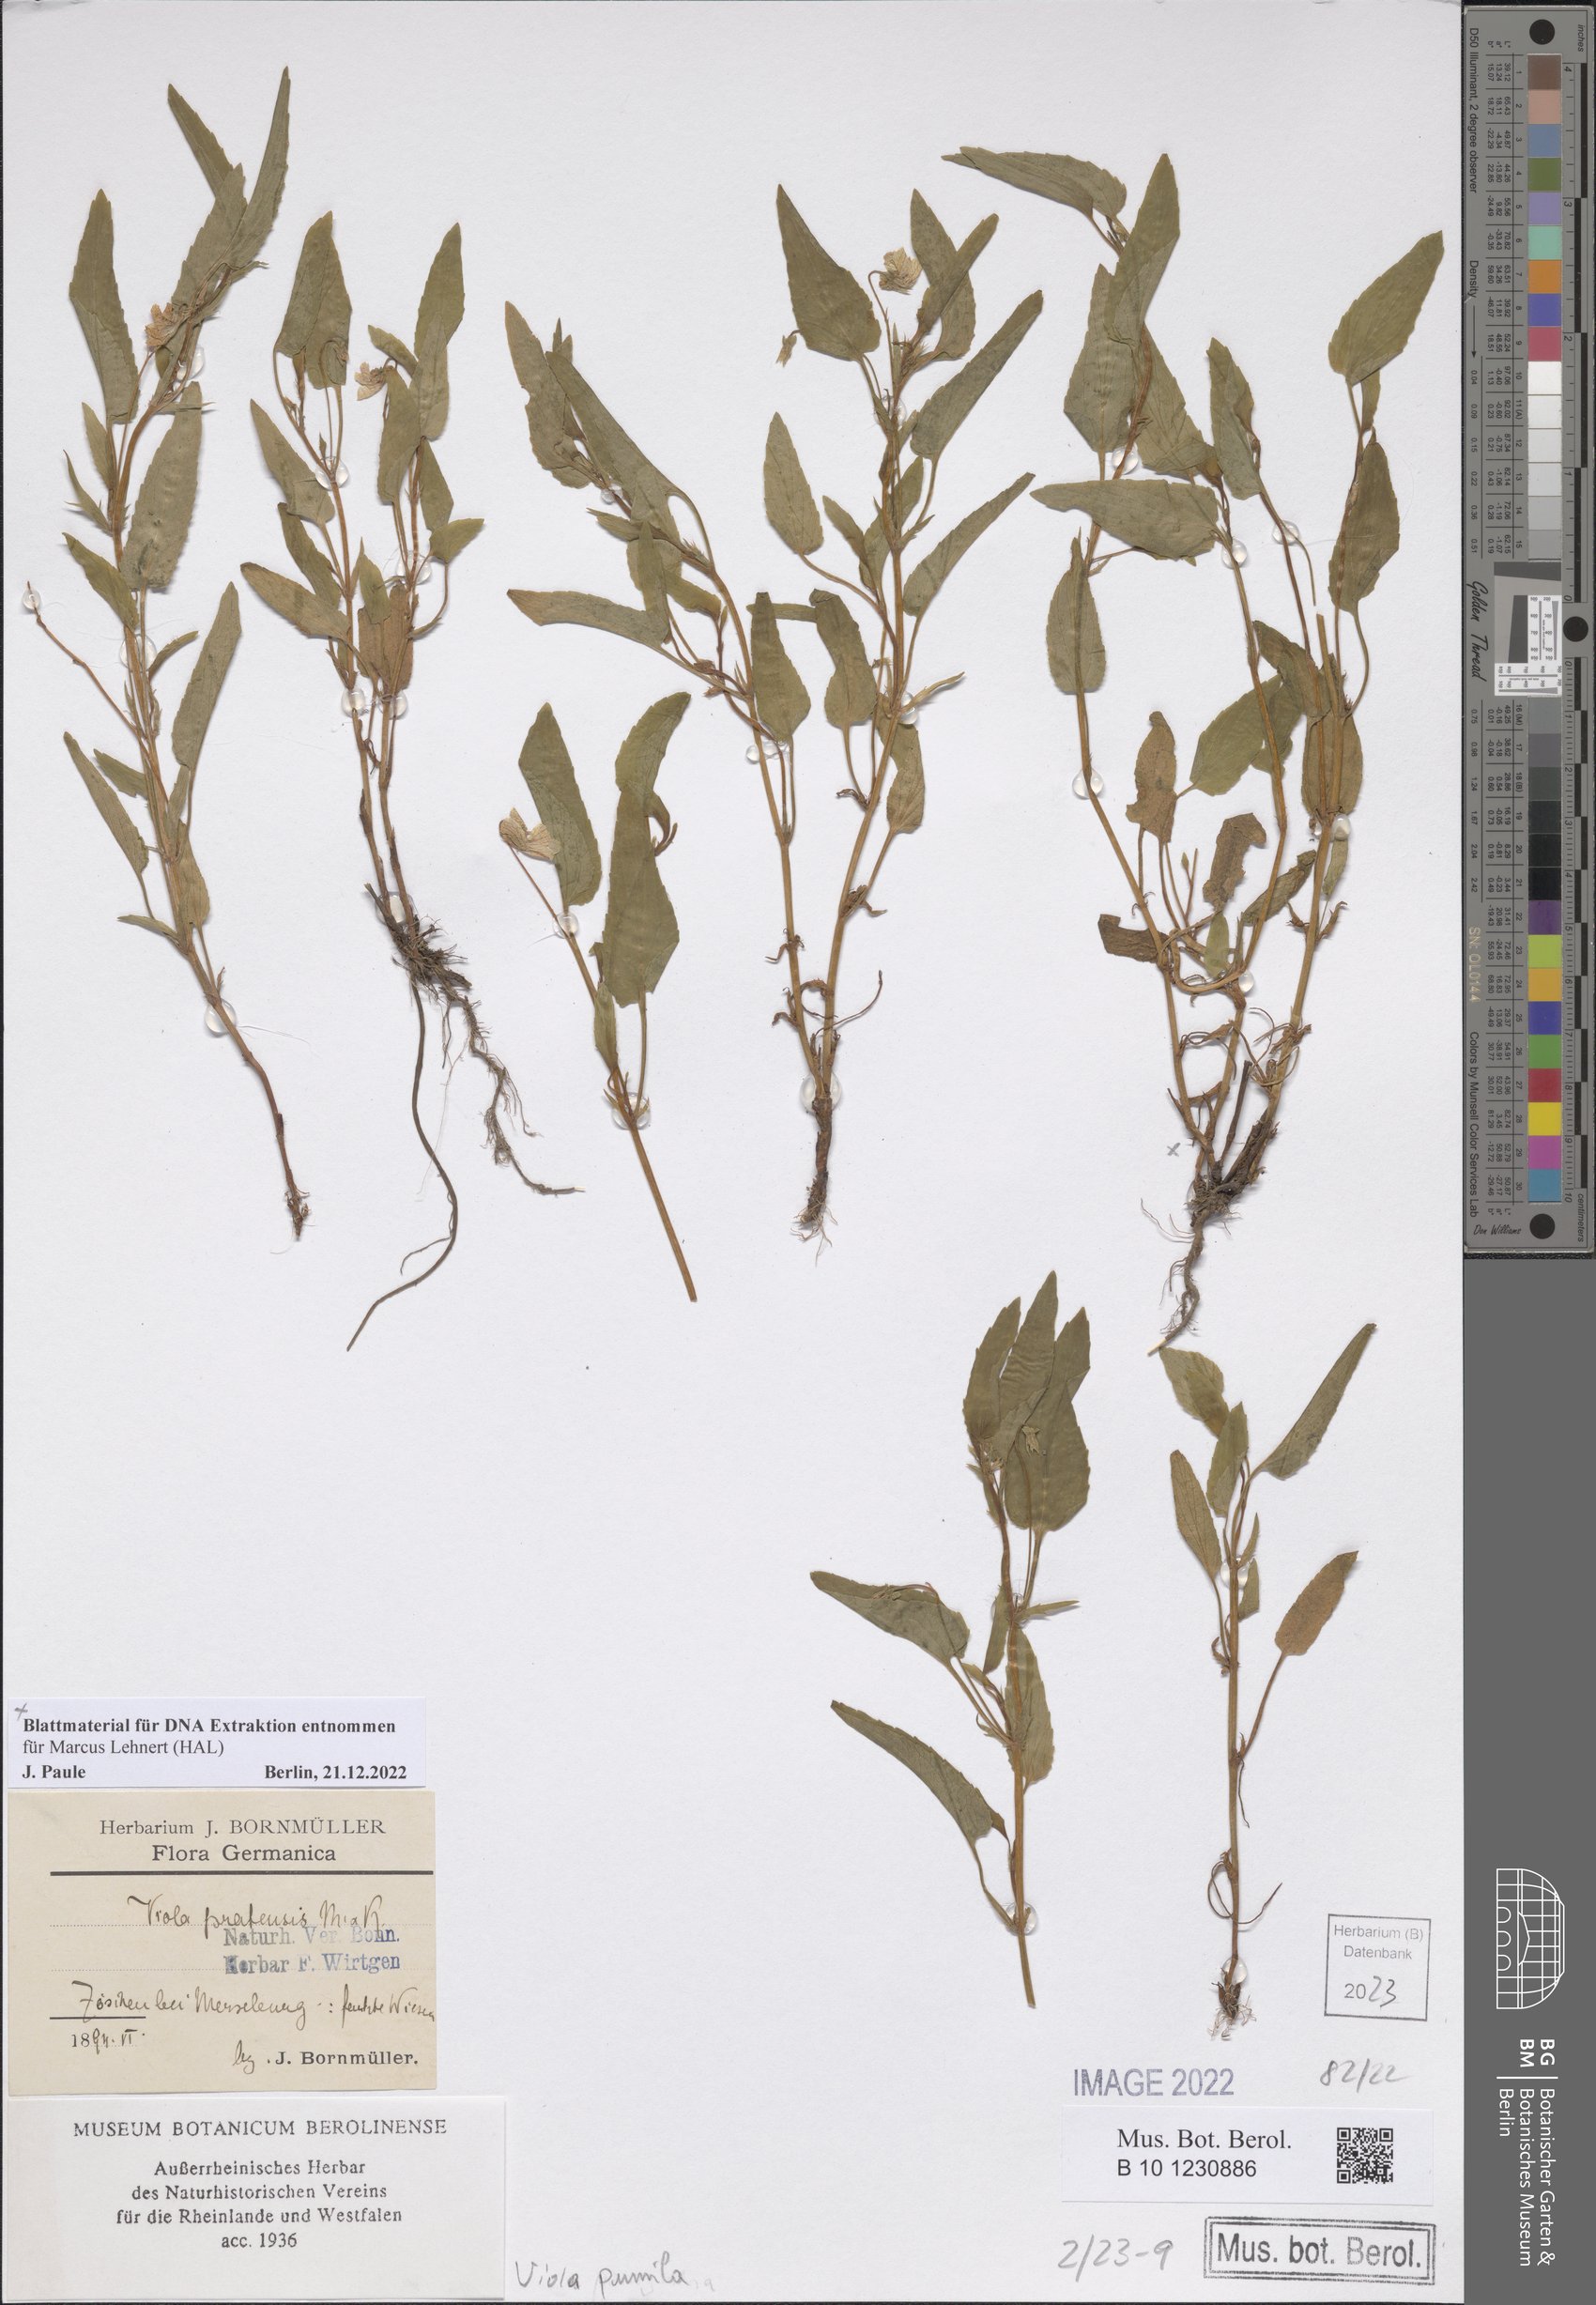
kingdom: Plantae
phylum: Tracheophyta
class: Magnoliopsida
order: Malpighiales
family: Violaceae
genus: Viola
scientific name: Viola pumila
